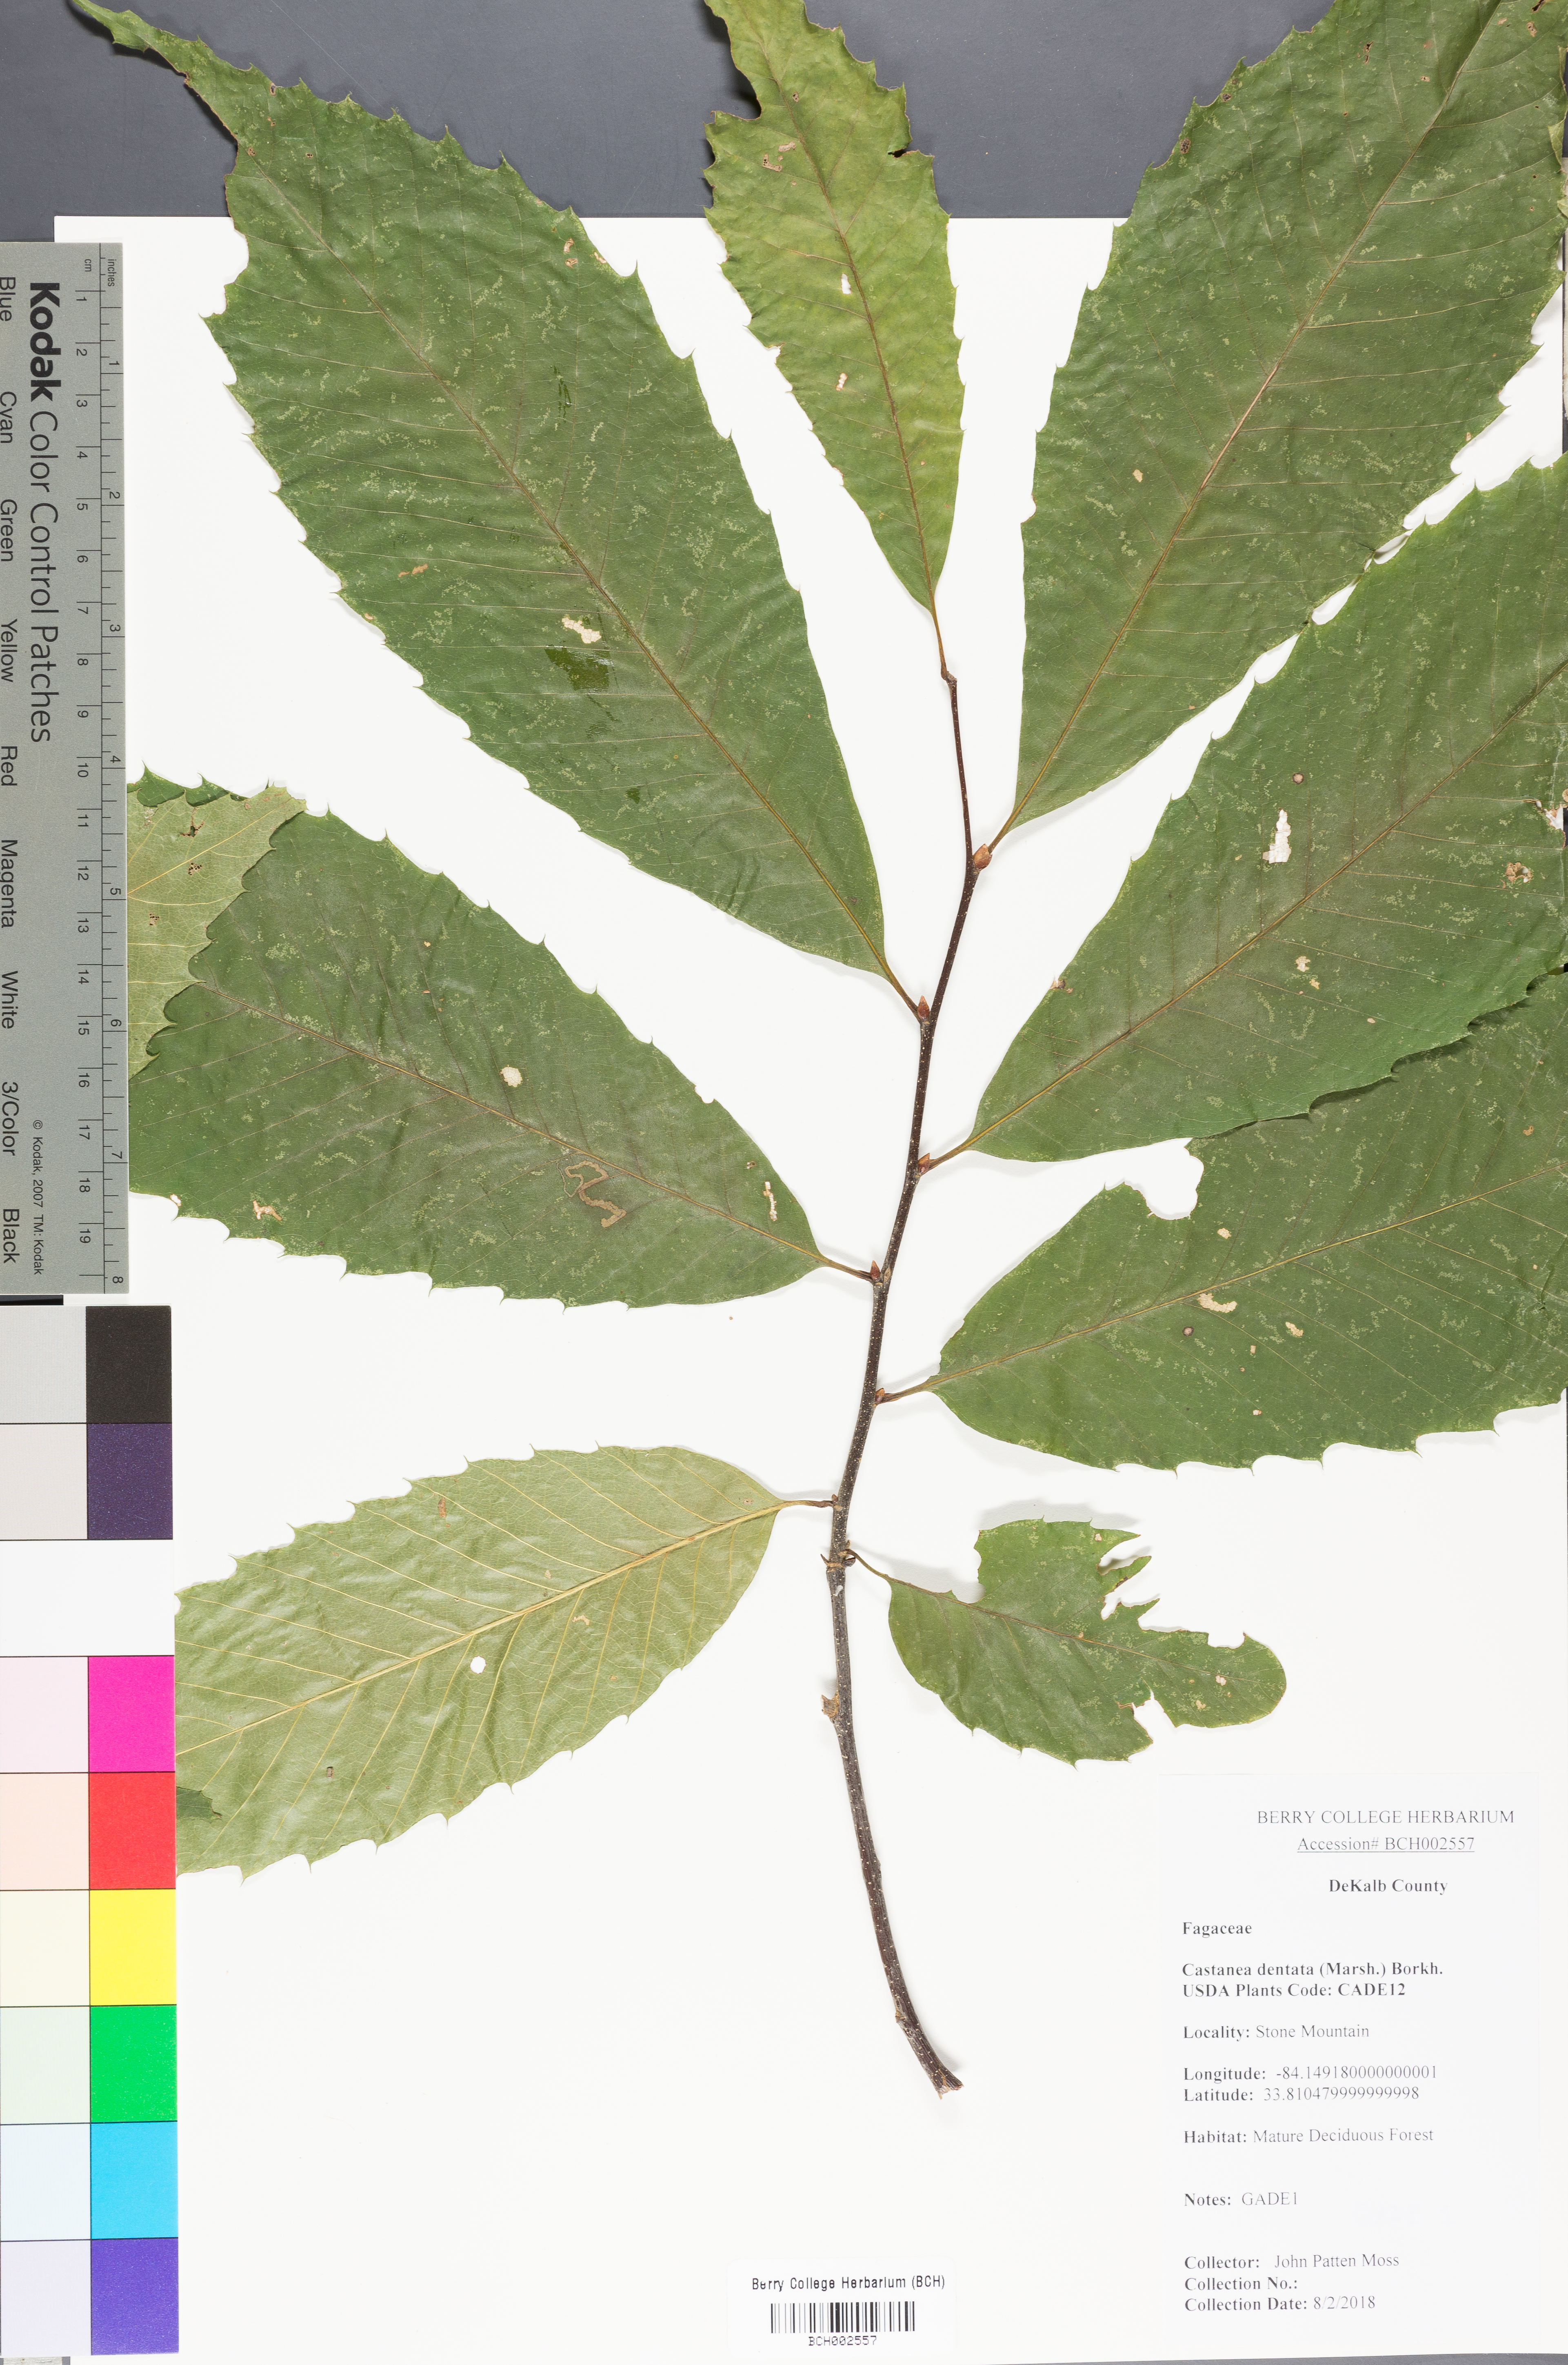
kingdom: Plantae
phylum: Tracheophyta
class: Magnoliopsida
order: Fagales
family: Fagaceae
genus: Castanea
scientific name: Castanea dentata
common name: American chestnut
